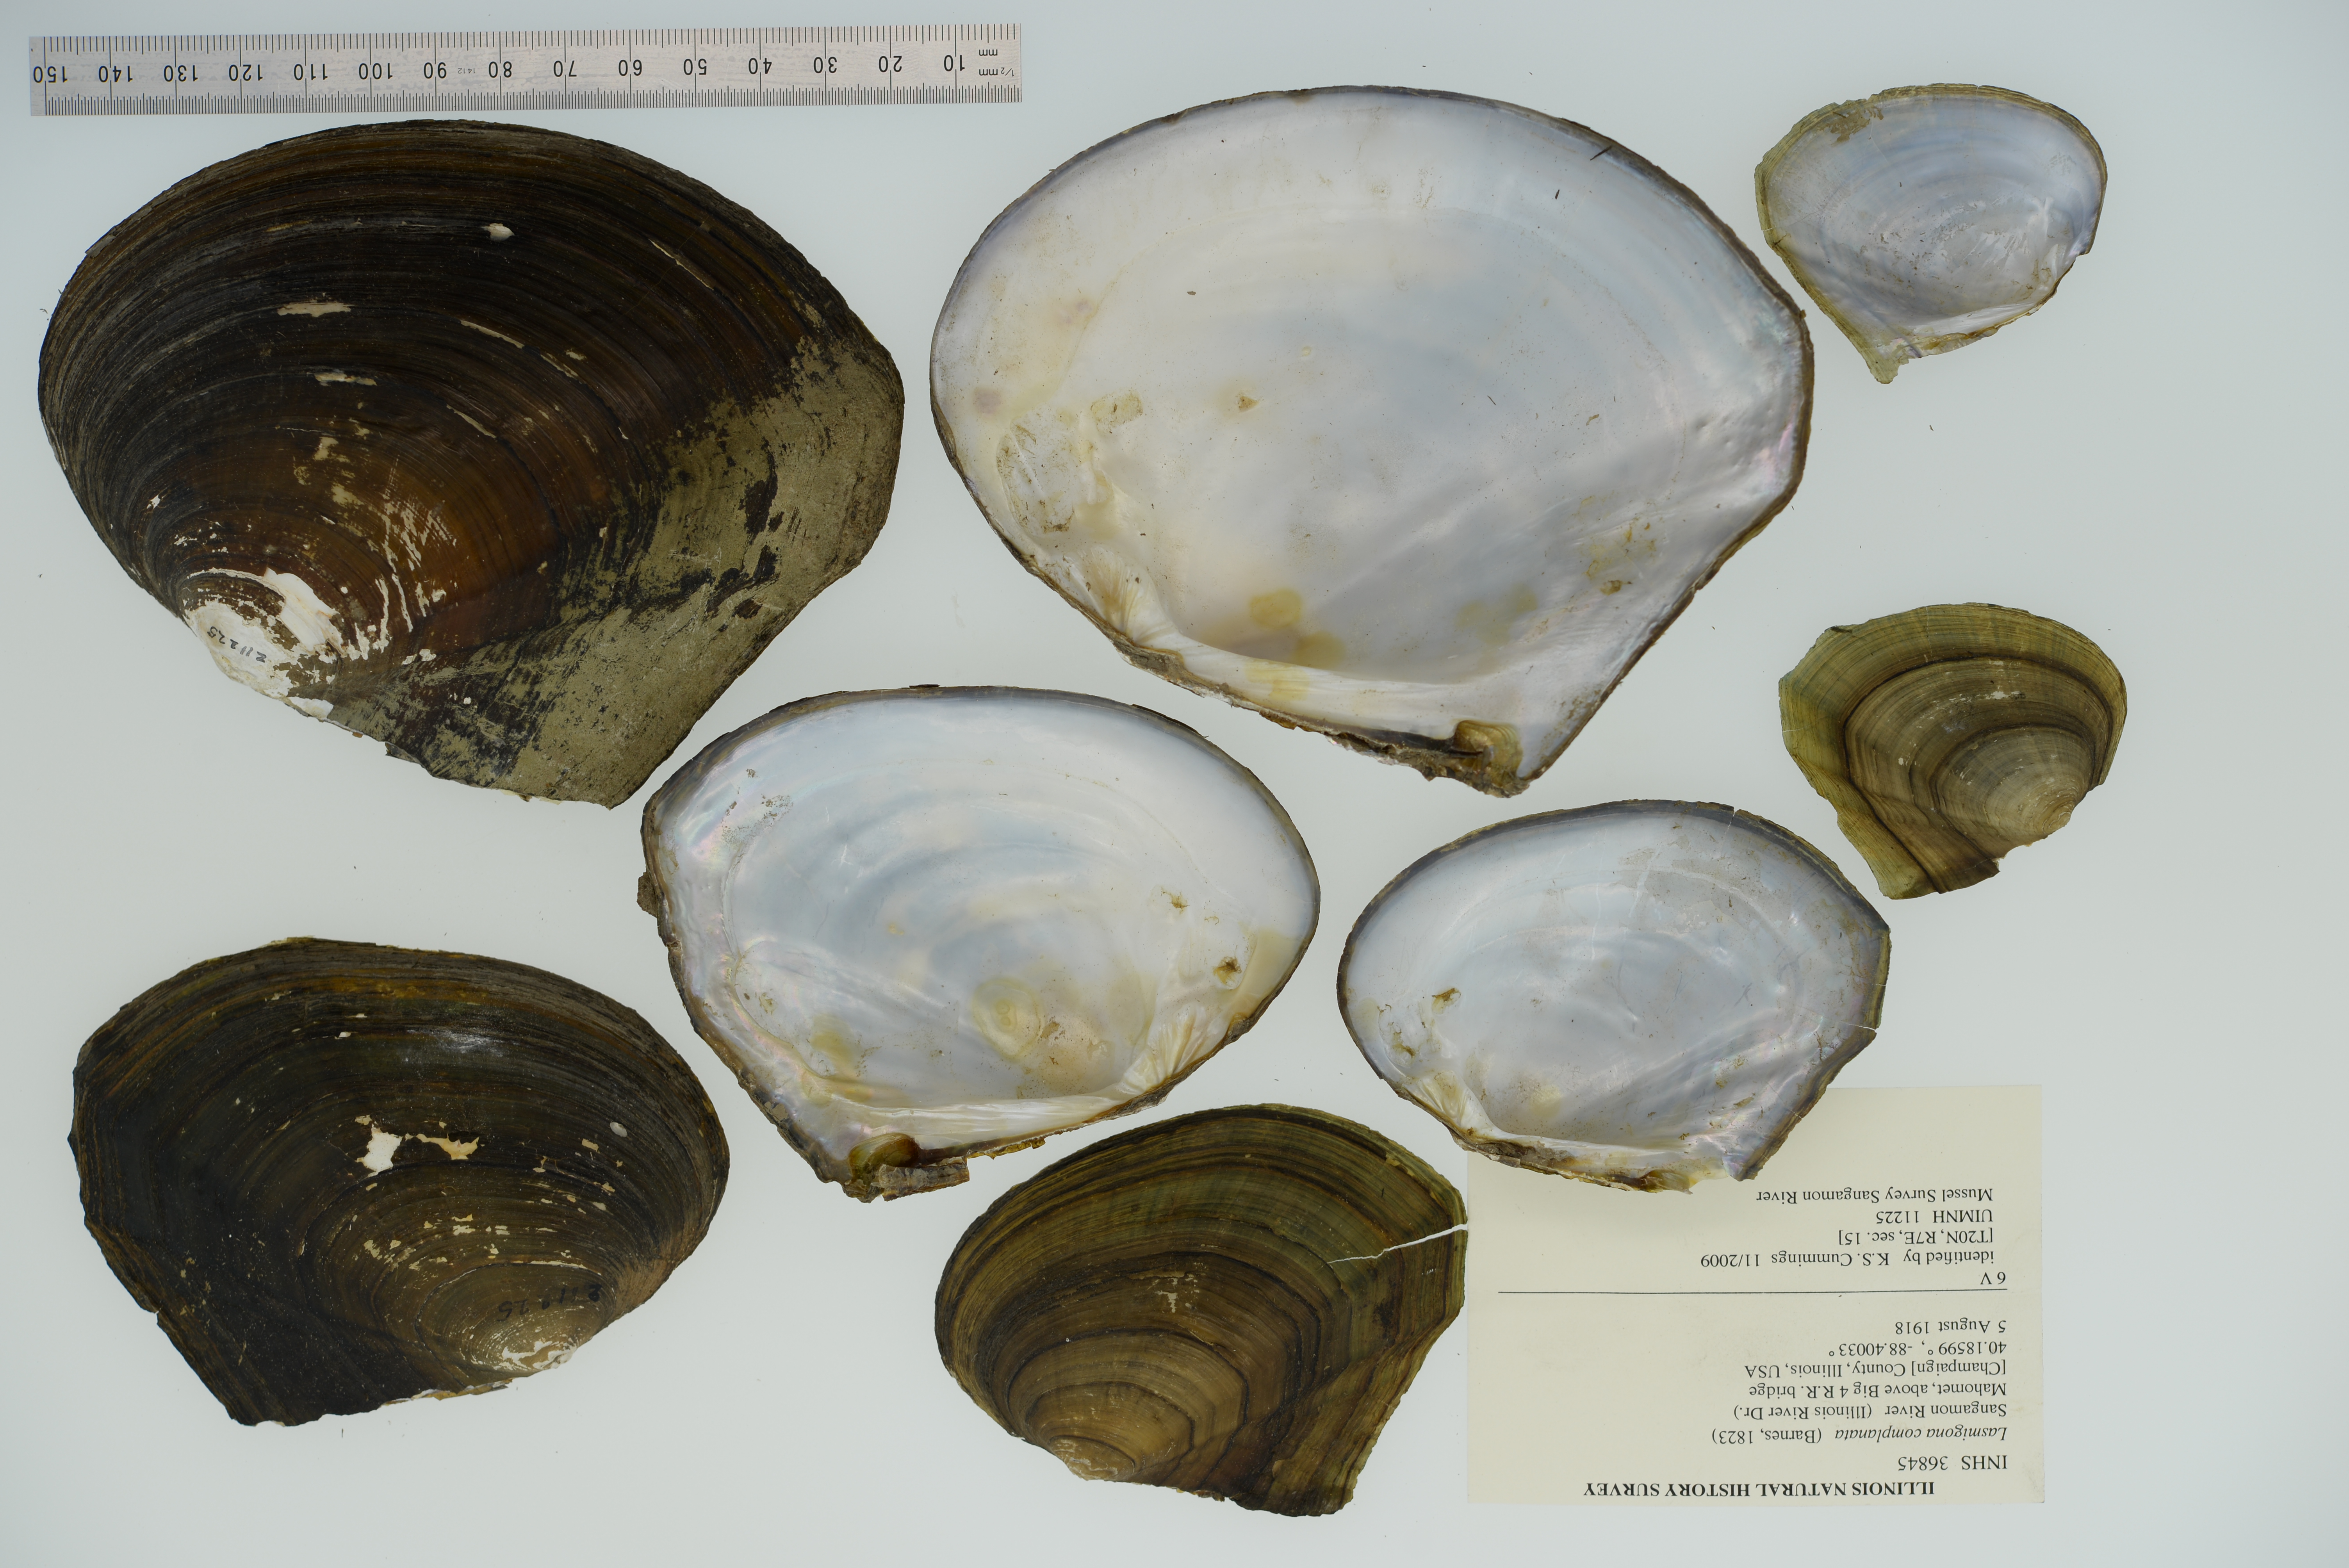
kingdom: Animalia
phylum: Mollusca
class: Bivalvia
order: Unionida
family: Unionidae
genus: Lasmigona
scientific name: Lasmigona complanata
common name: White heelsplitter
